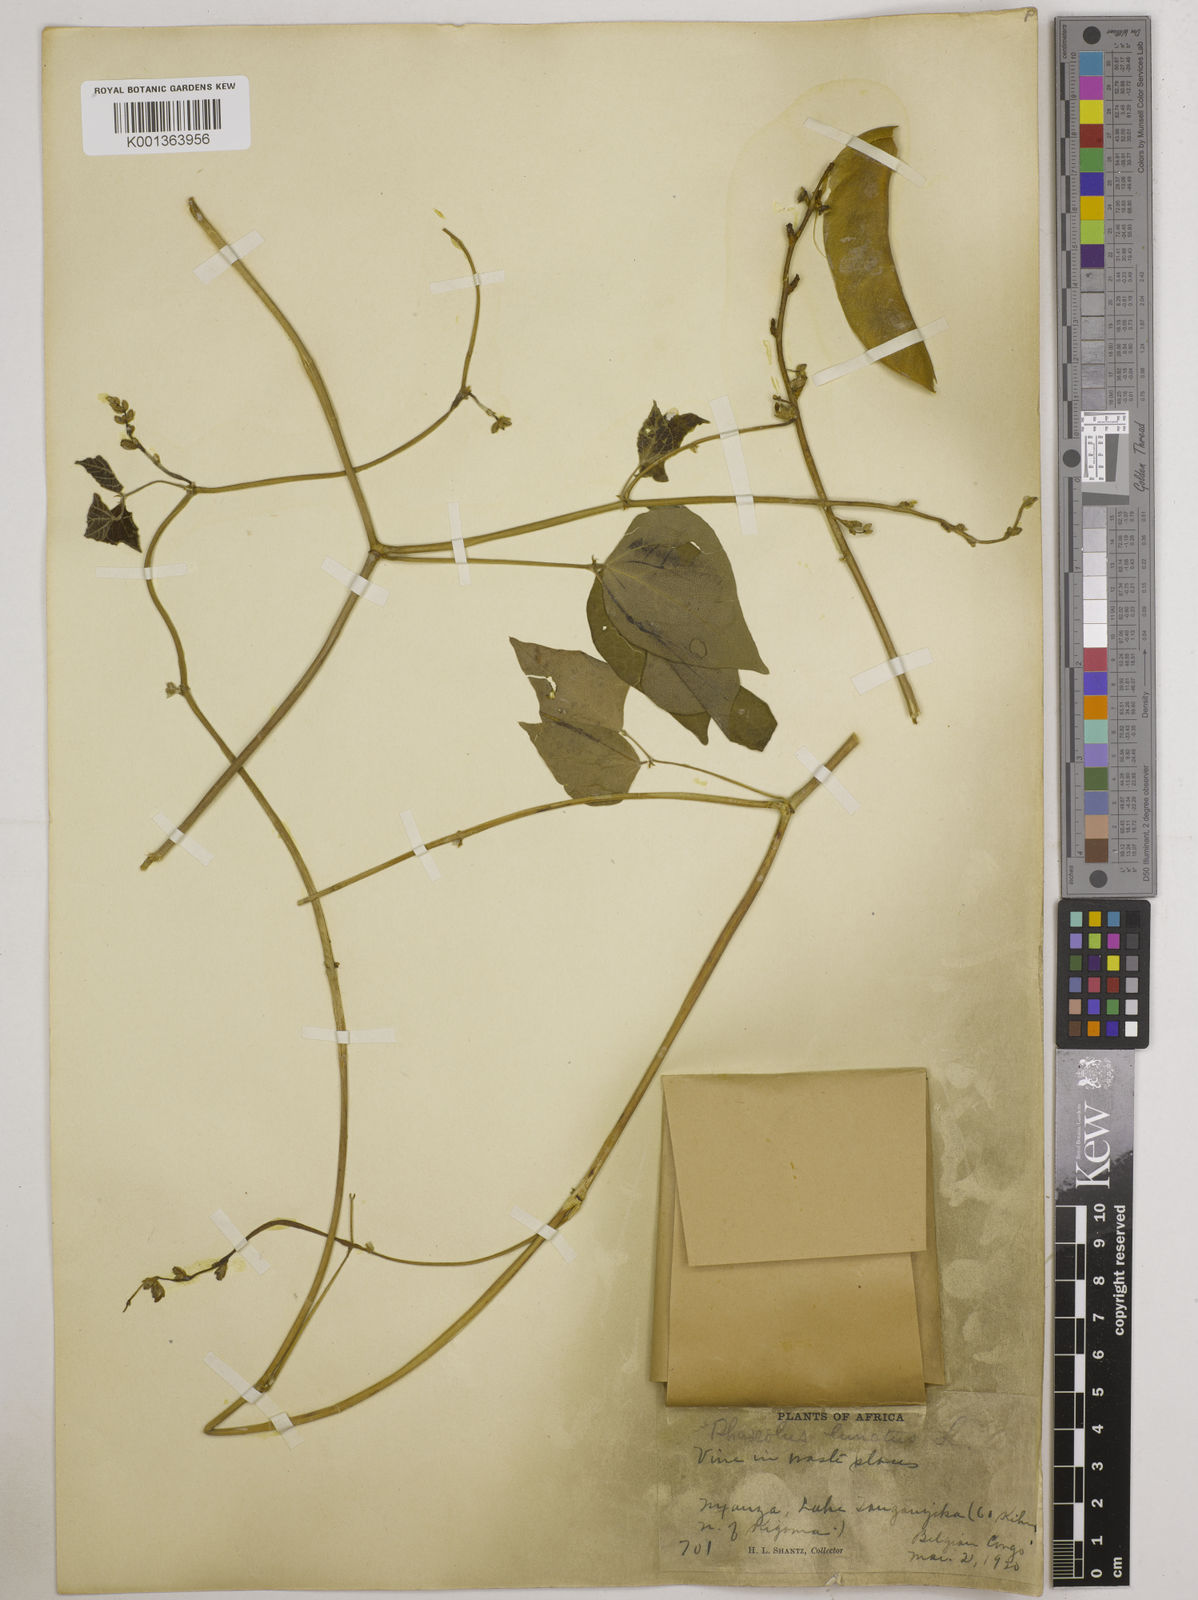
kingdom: Plantae
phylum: Tracheophyta
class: Magnoliopsida
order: Fabales
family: Fabaceae
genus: Phaseolus
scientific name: Phaseolus lunatus
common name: Sieva bean
